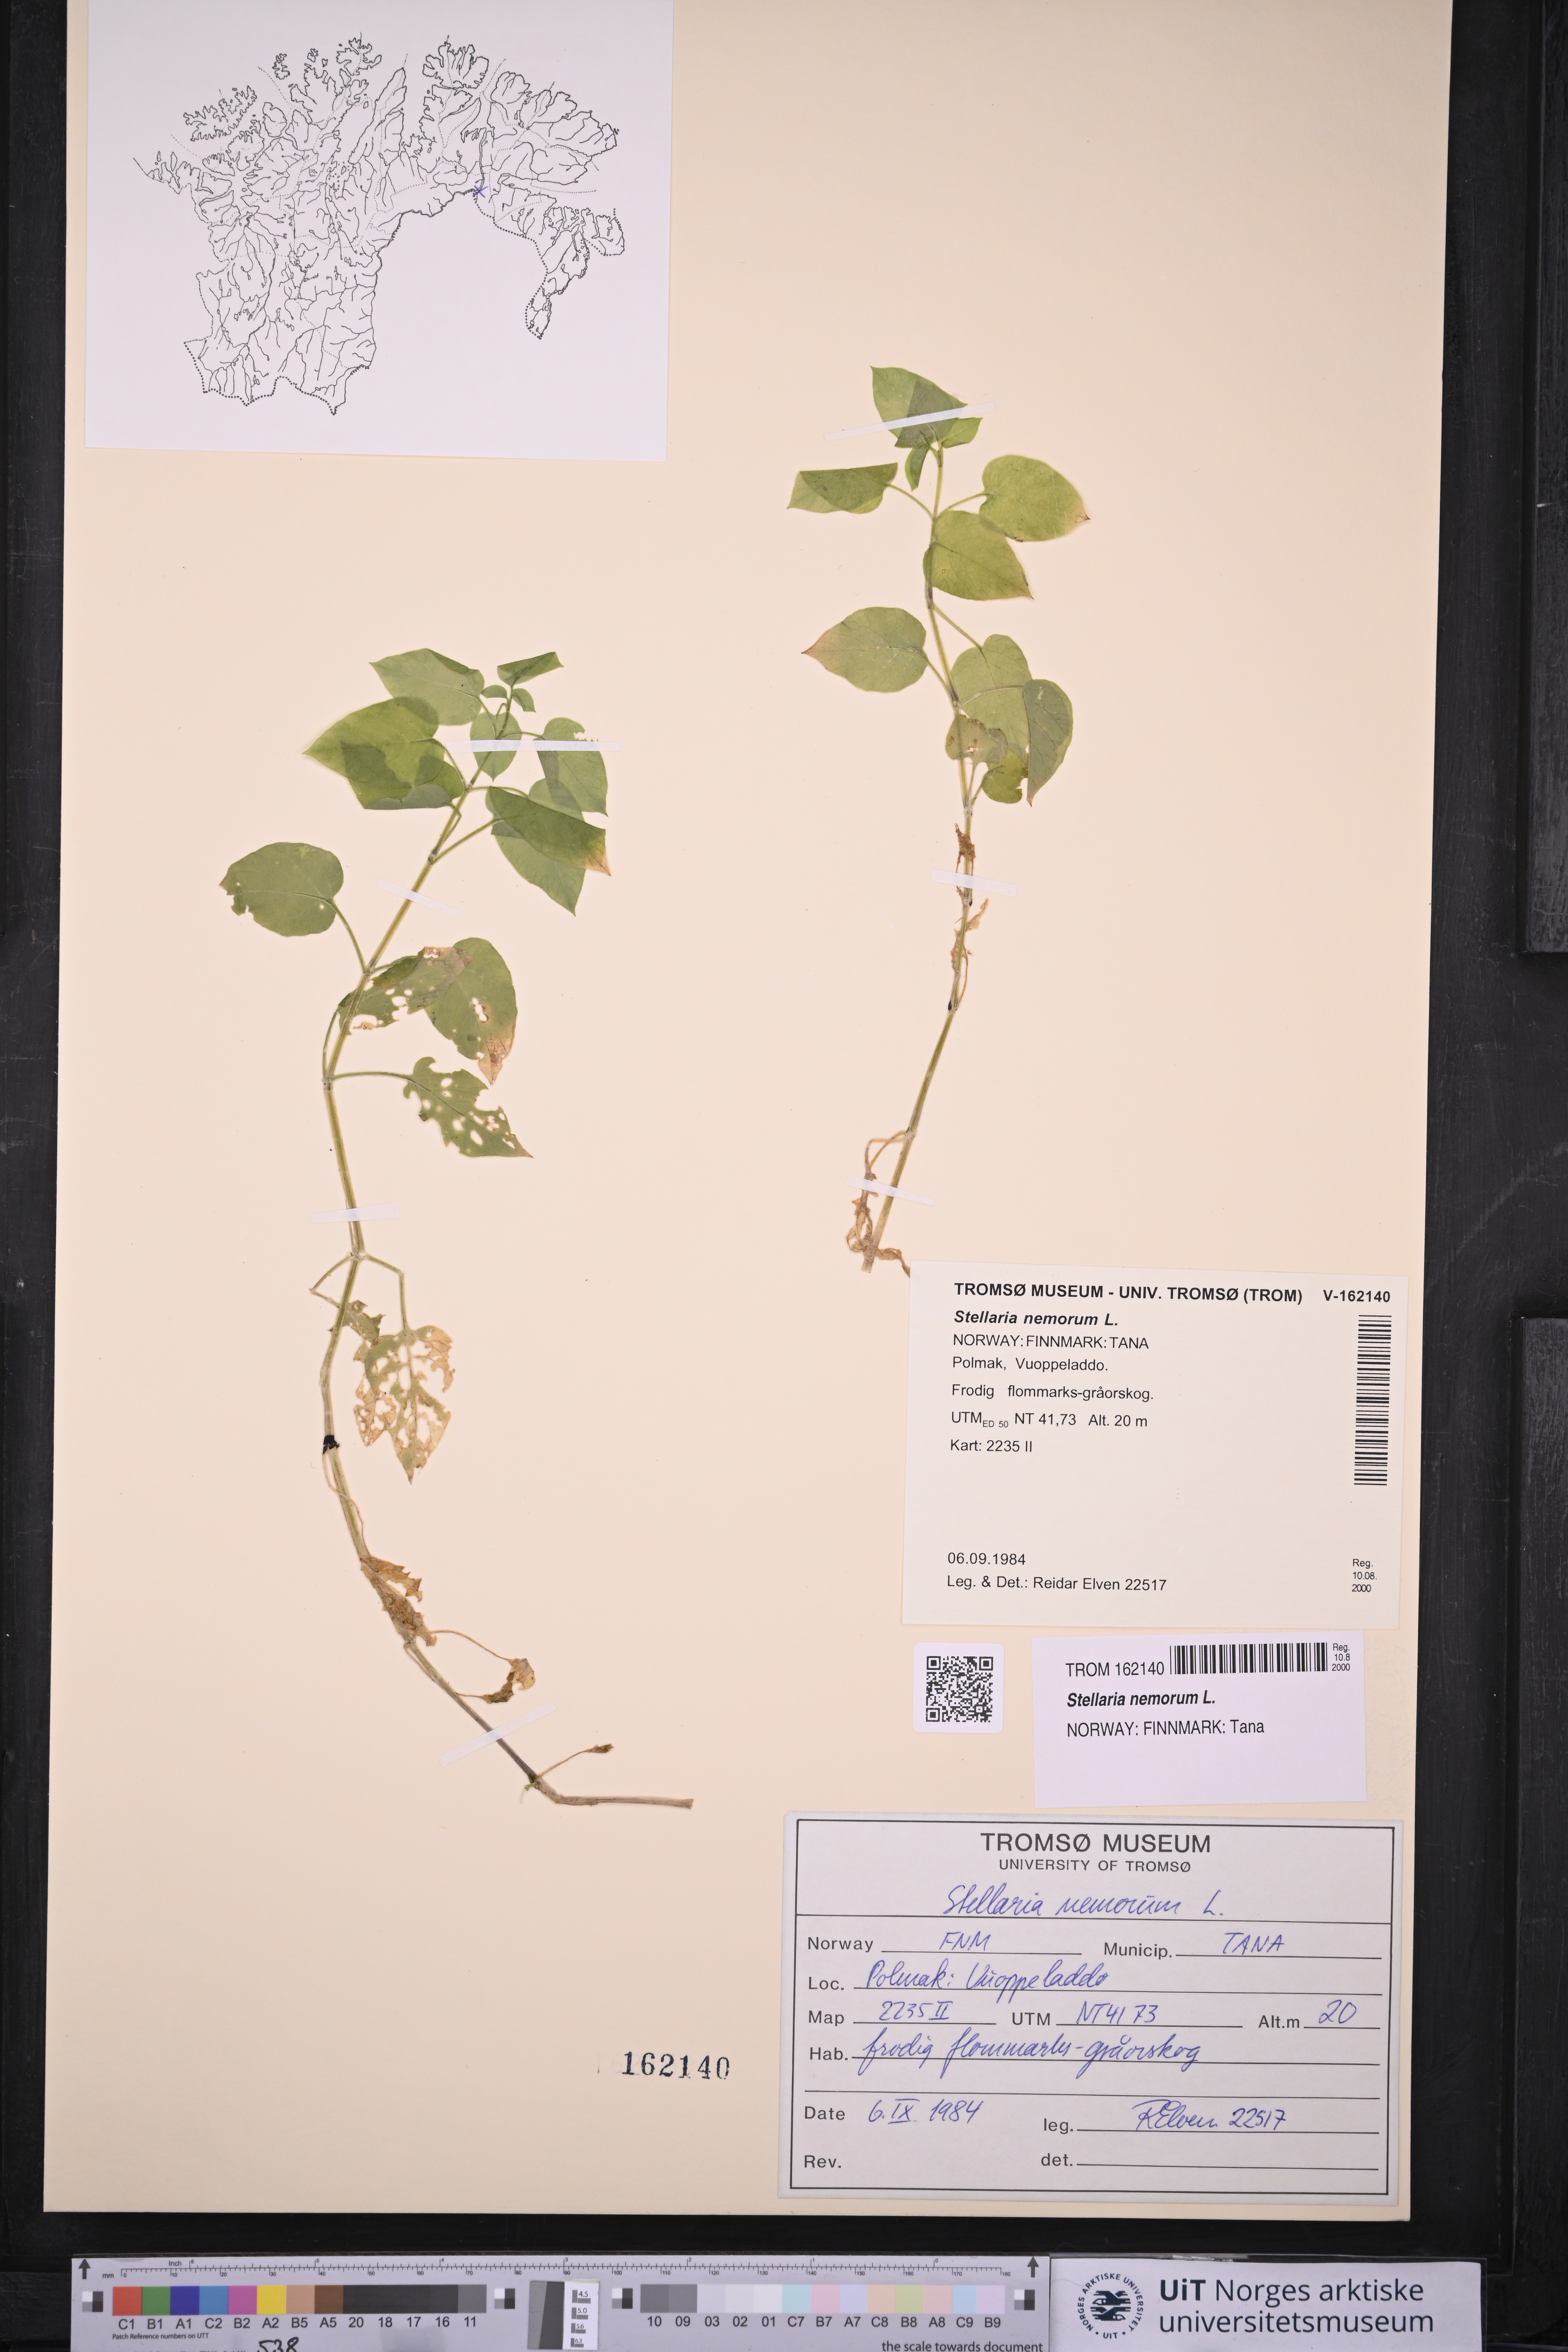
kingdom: Plantae
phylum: Tracheophyta
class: Magnoliopsida
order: Caryophyllales
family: Caryophyllaceae
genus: Stellaria
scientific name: Stellaria nemorum
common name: Wood stitchwort
